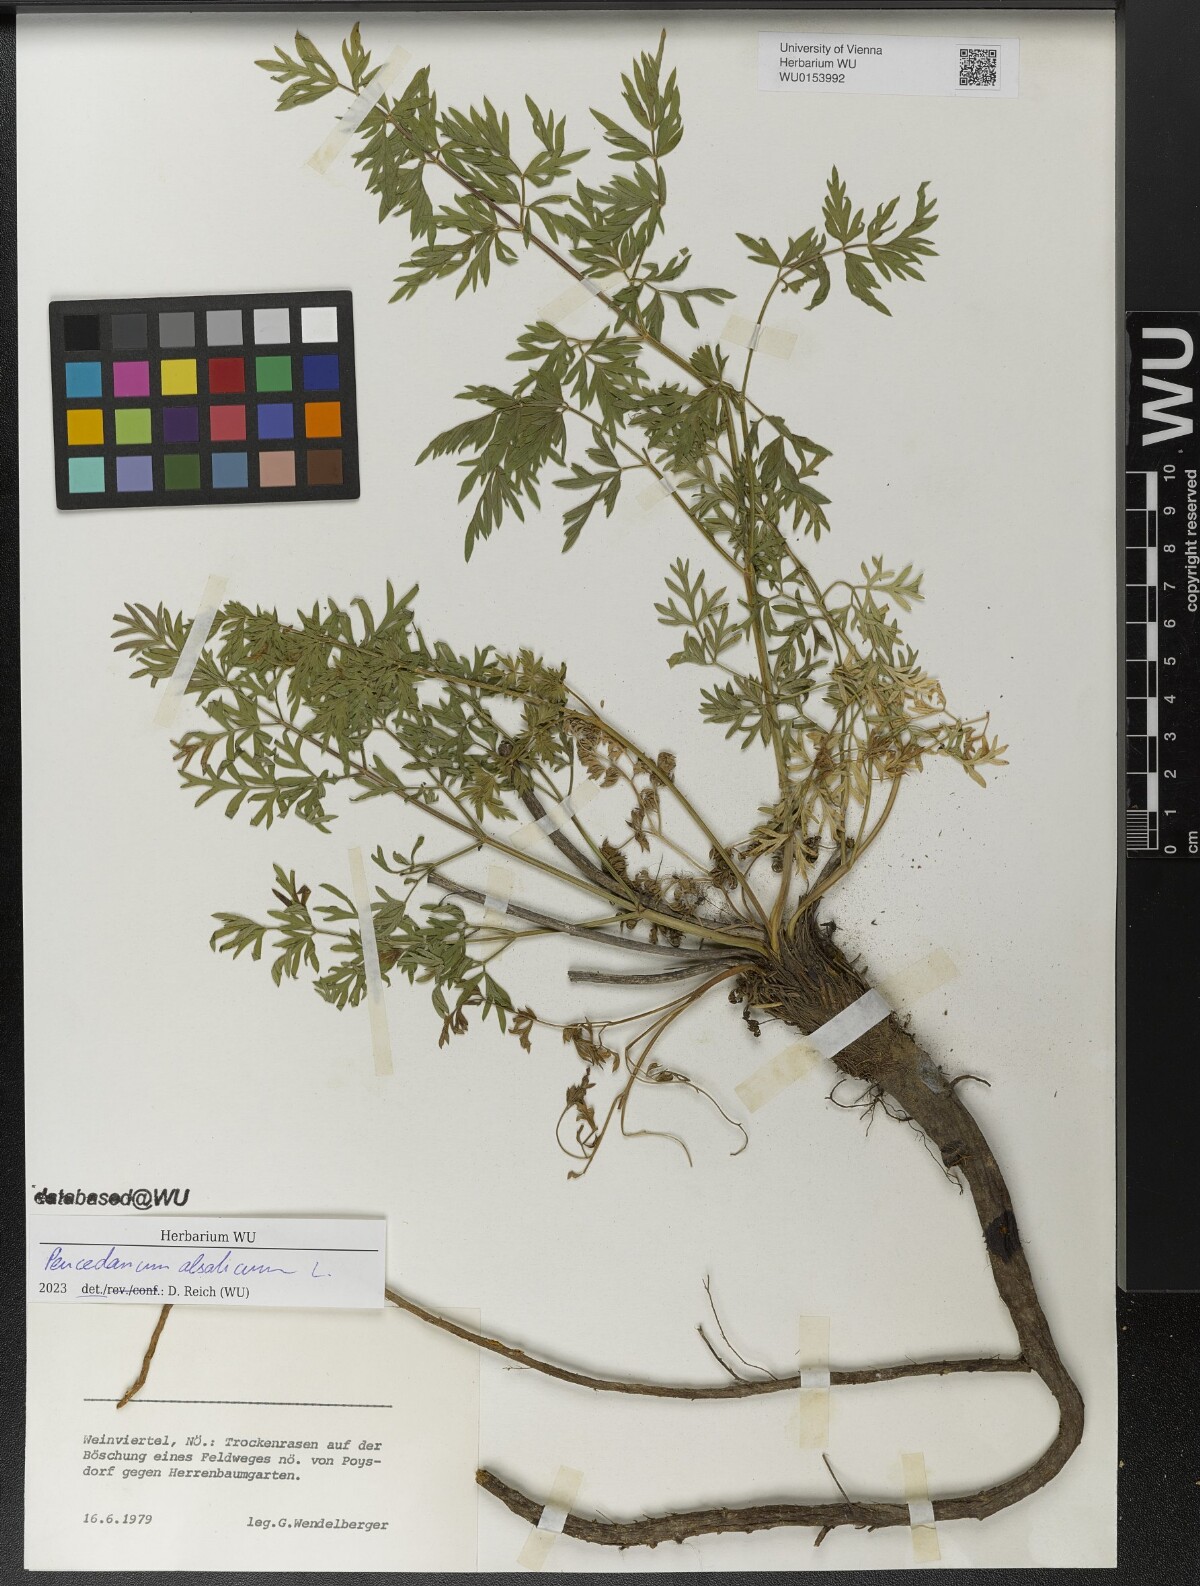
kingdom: Plantae
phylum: Tracheophyta
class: Magnoliopsida
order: Apiales
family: Apiaceae
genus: Xanthoselinum
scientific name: Xanthoselinum alsaticum
